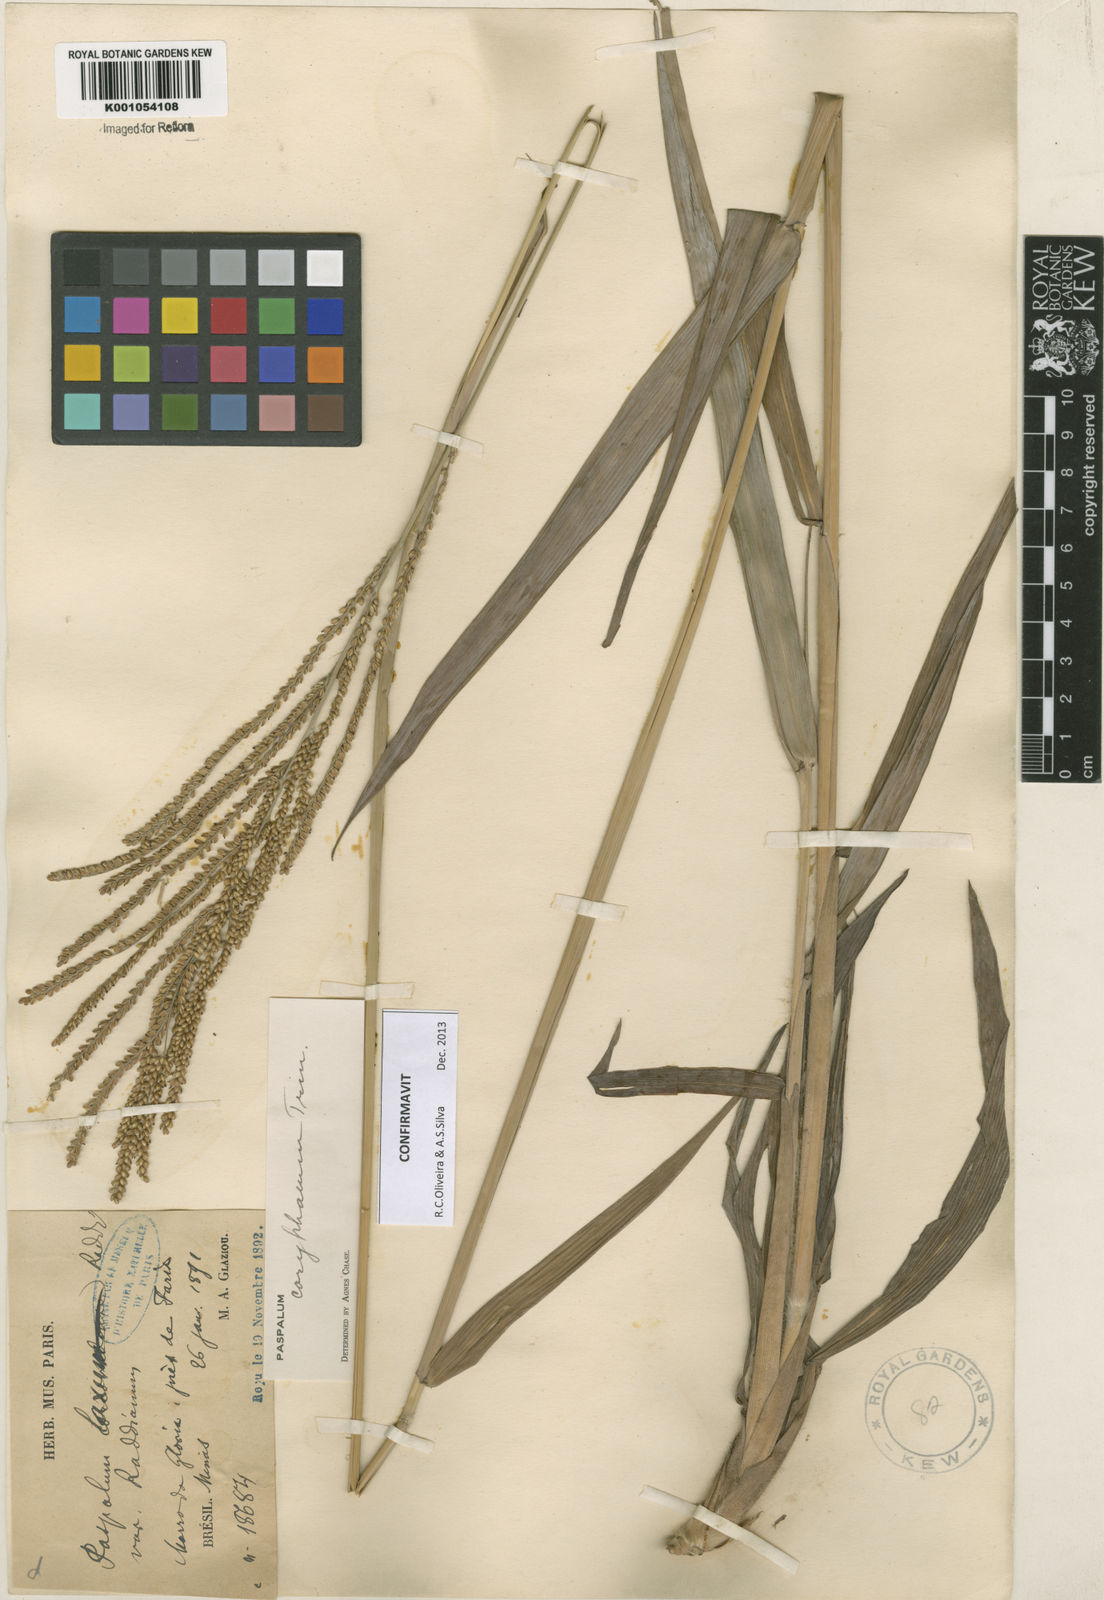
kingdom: Plantae
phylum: Tracheophyta
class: Liliopsida
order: Poales
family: Poaceae
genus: Paspalum
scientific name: Paspalum coryphaeum
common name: Emperor crowngrass
